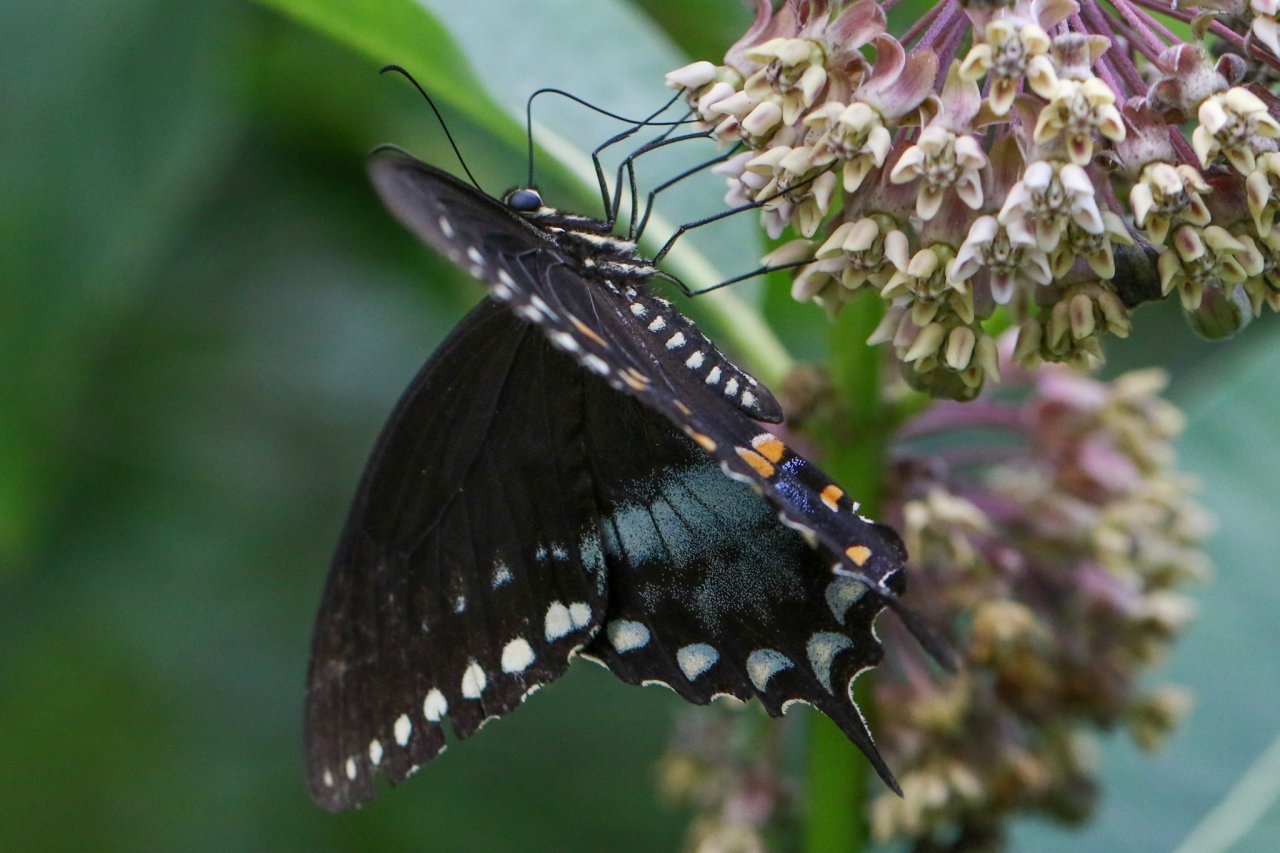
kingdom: Animalia
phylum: Arthropoda
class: Insecta
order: Lepidoptera
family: Papilionidae
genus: Pterourus
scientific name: Pterourus troilus
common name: Spicebush Swallowtail
